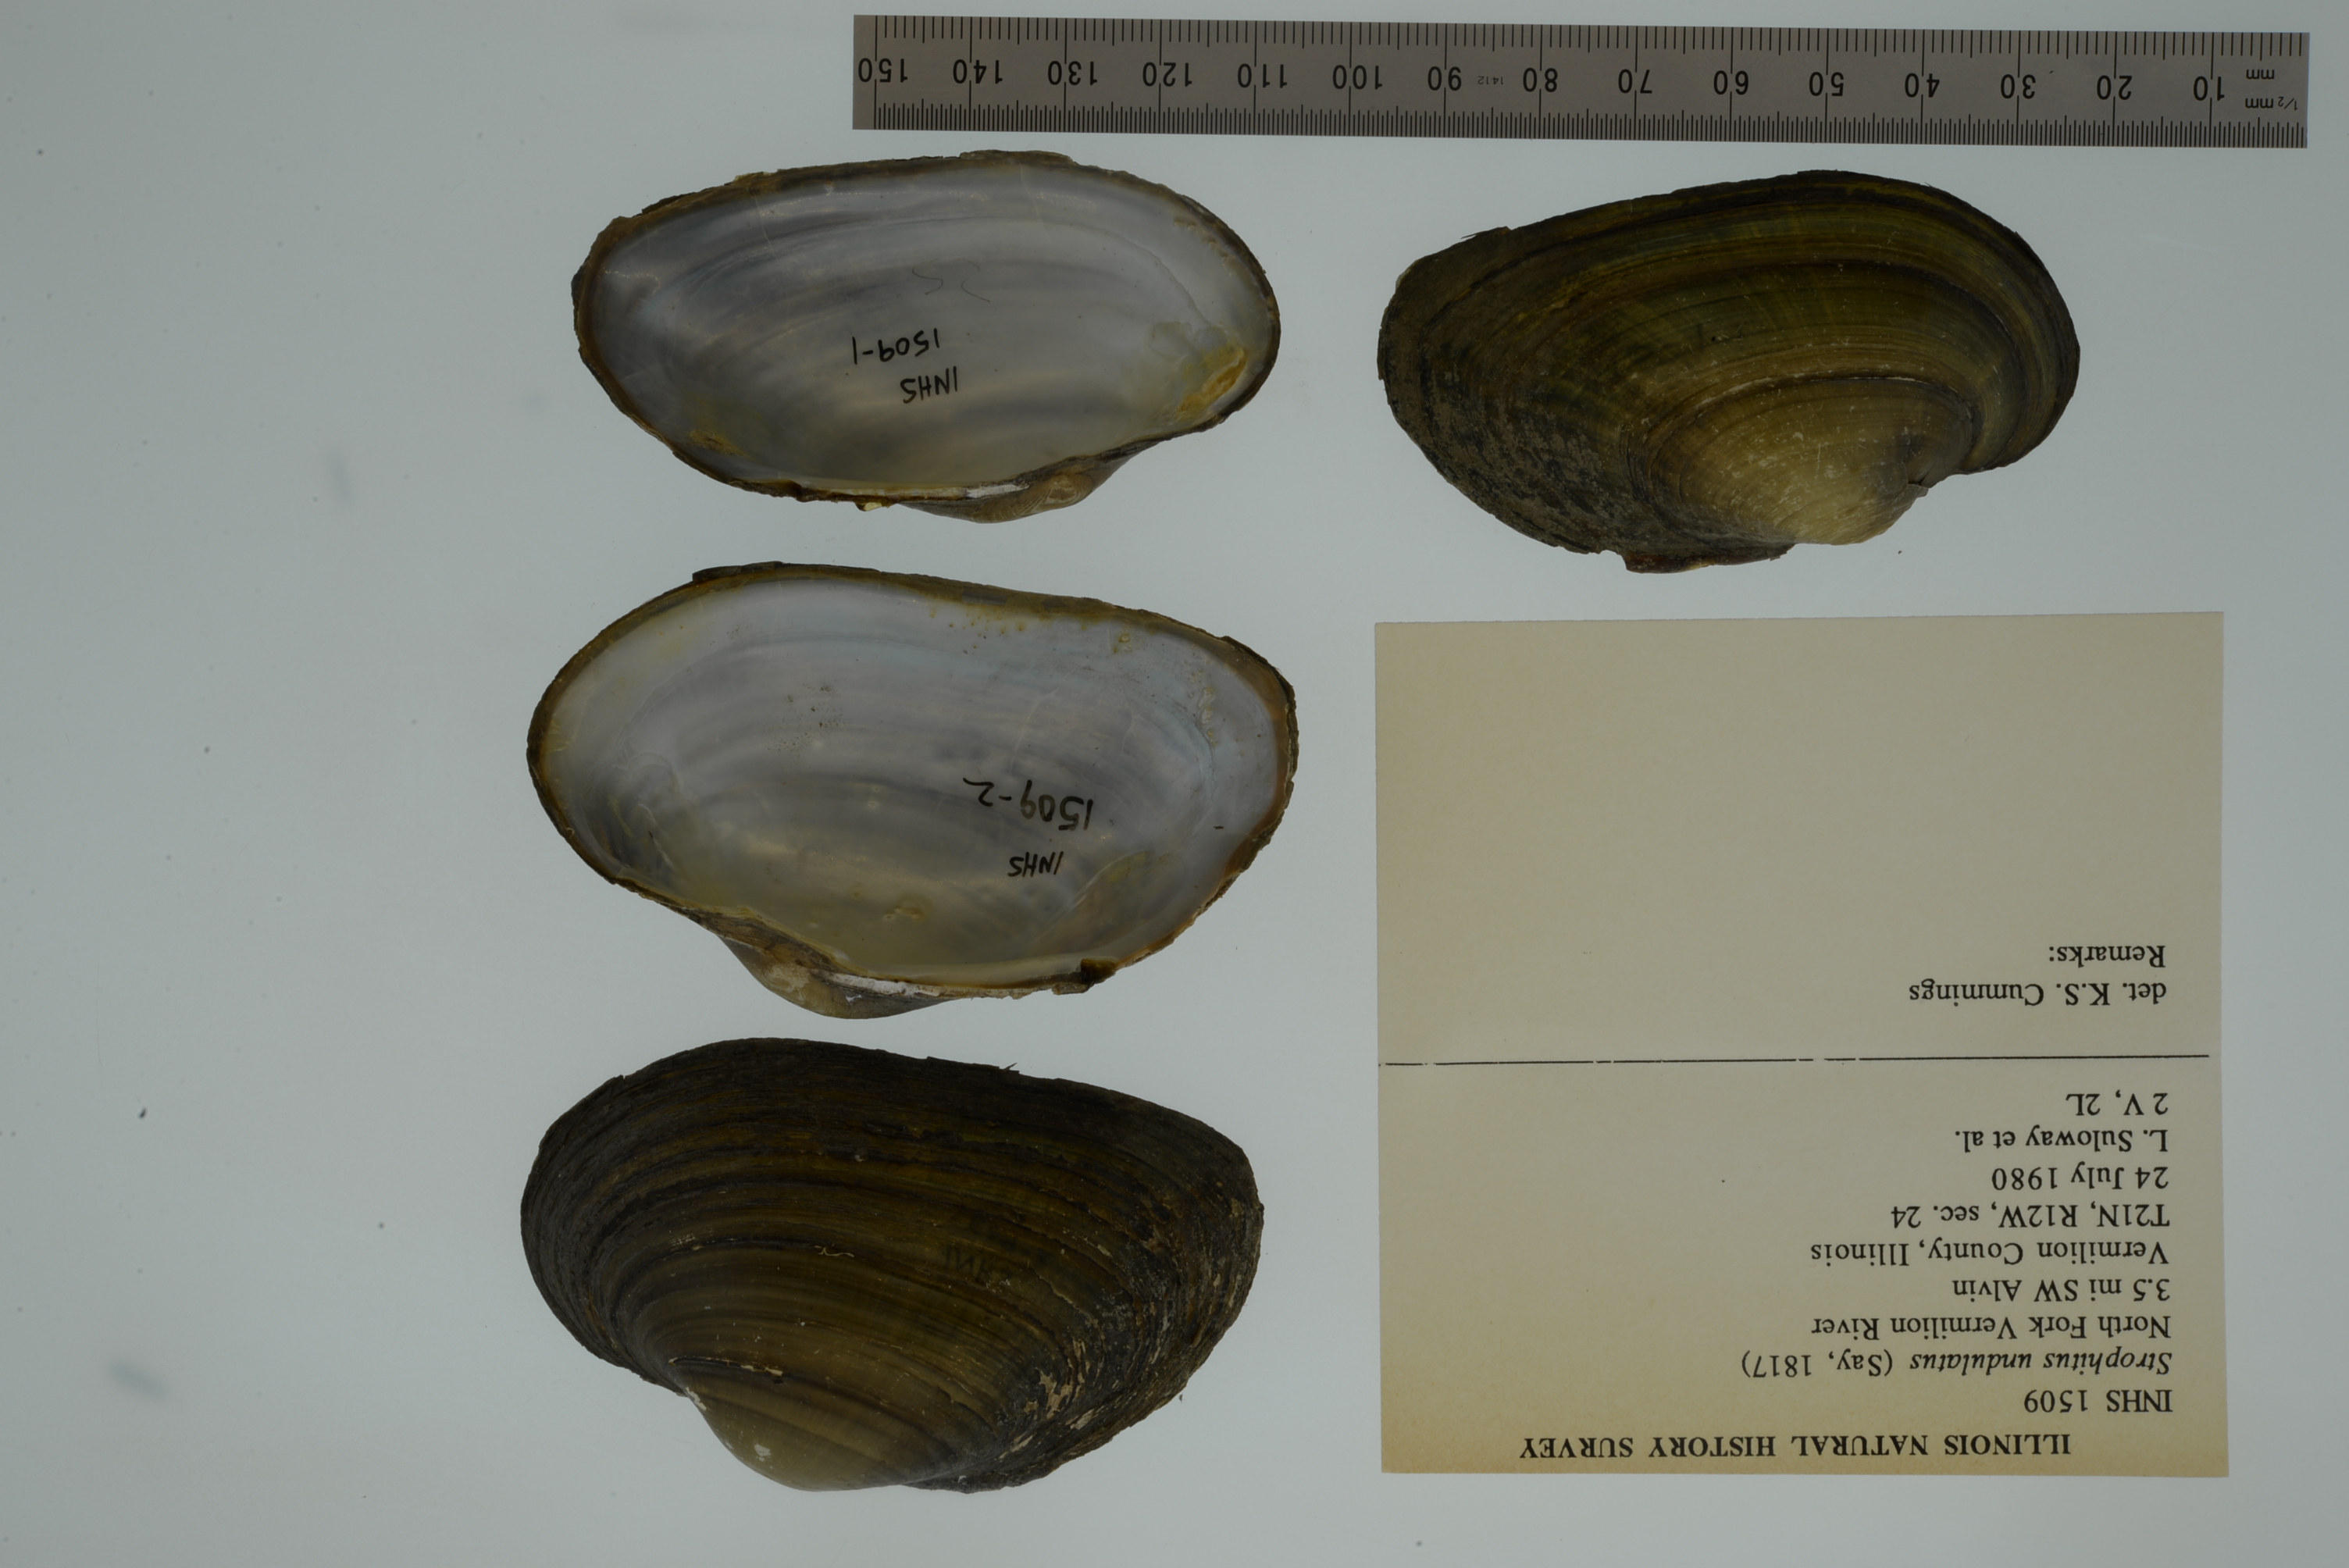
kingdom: Animalia
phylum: Mollusca
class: Bivalvia
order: Unionida
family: Unionidae
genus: Strophitus
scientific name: Strophitus undulatus
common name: Creeper
